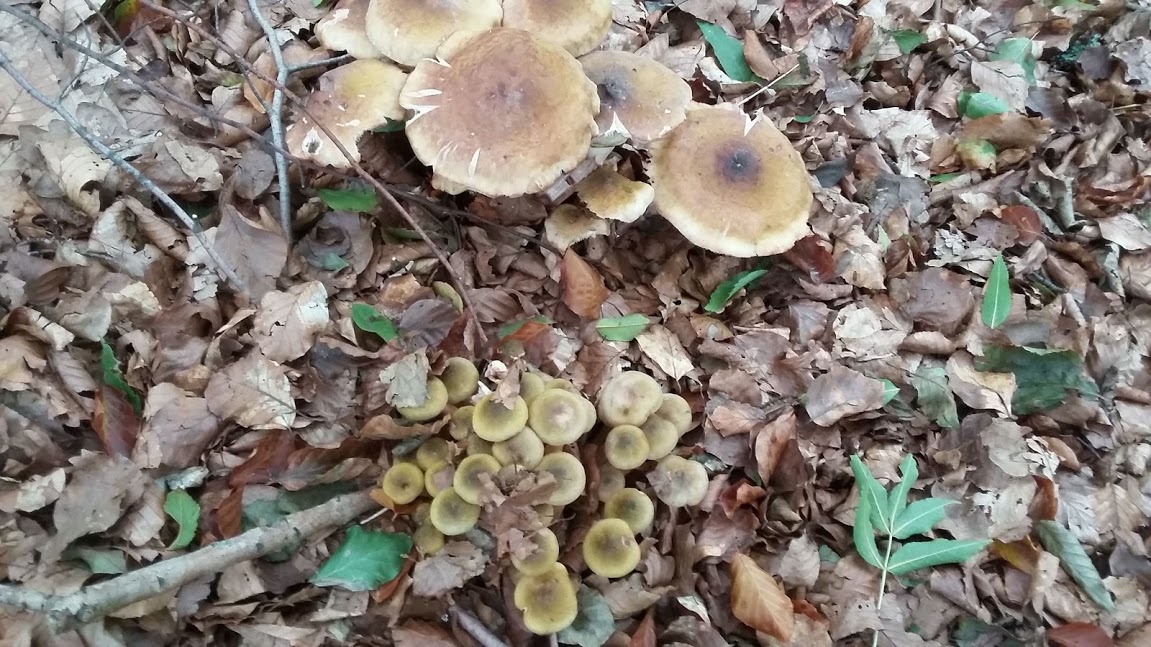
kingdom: Fungi
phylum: Basidiomycota
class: Agaricomycetes
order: Agaricales
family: Physalacriaceae
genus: Armillaria
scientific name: Armillaria mellea
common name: ægte honningsvamp
